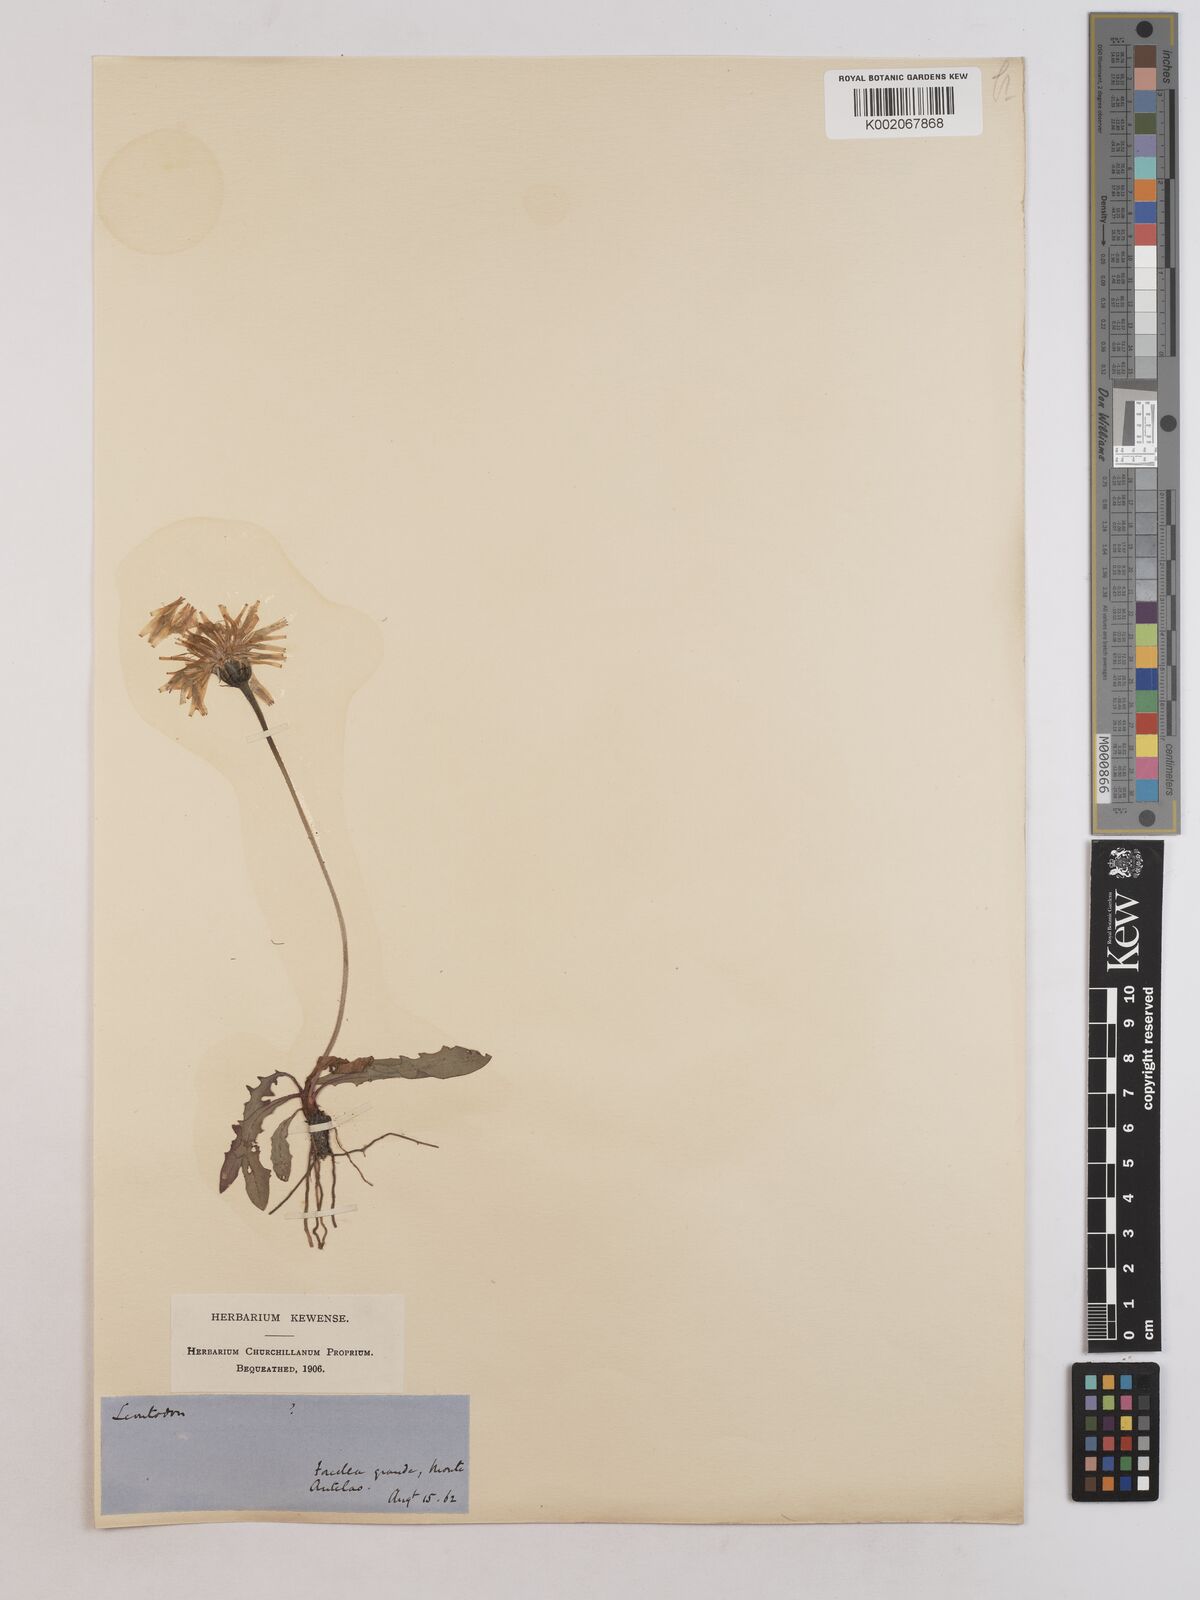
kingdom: Plantae
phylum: Tracheophyta
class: Magnoliopsida
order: Asterales
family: Asteraceae
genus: Leontodon
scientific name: Leontodon hispidus
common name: Rough hawkbit
